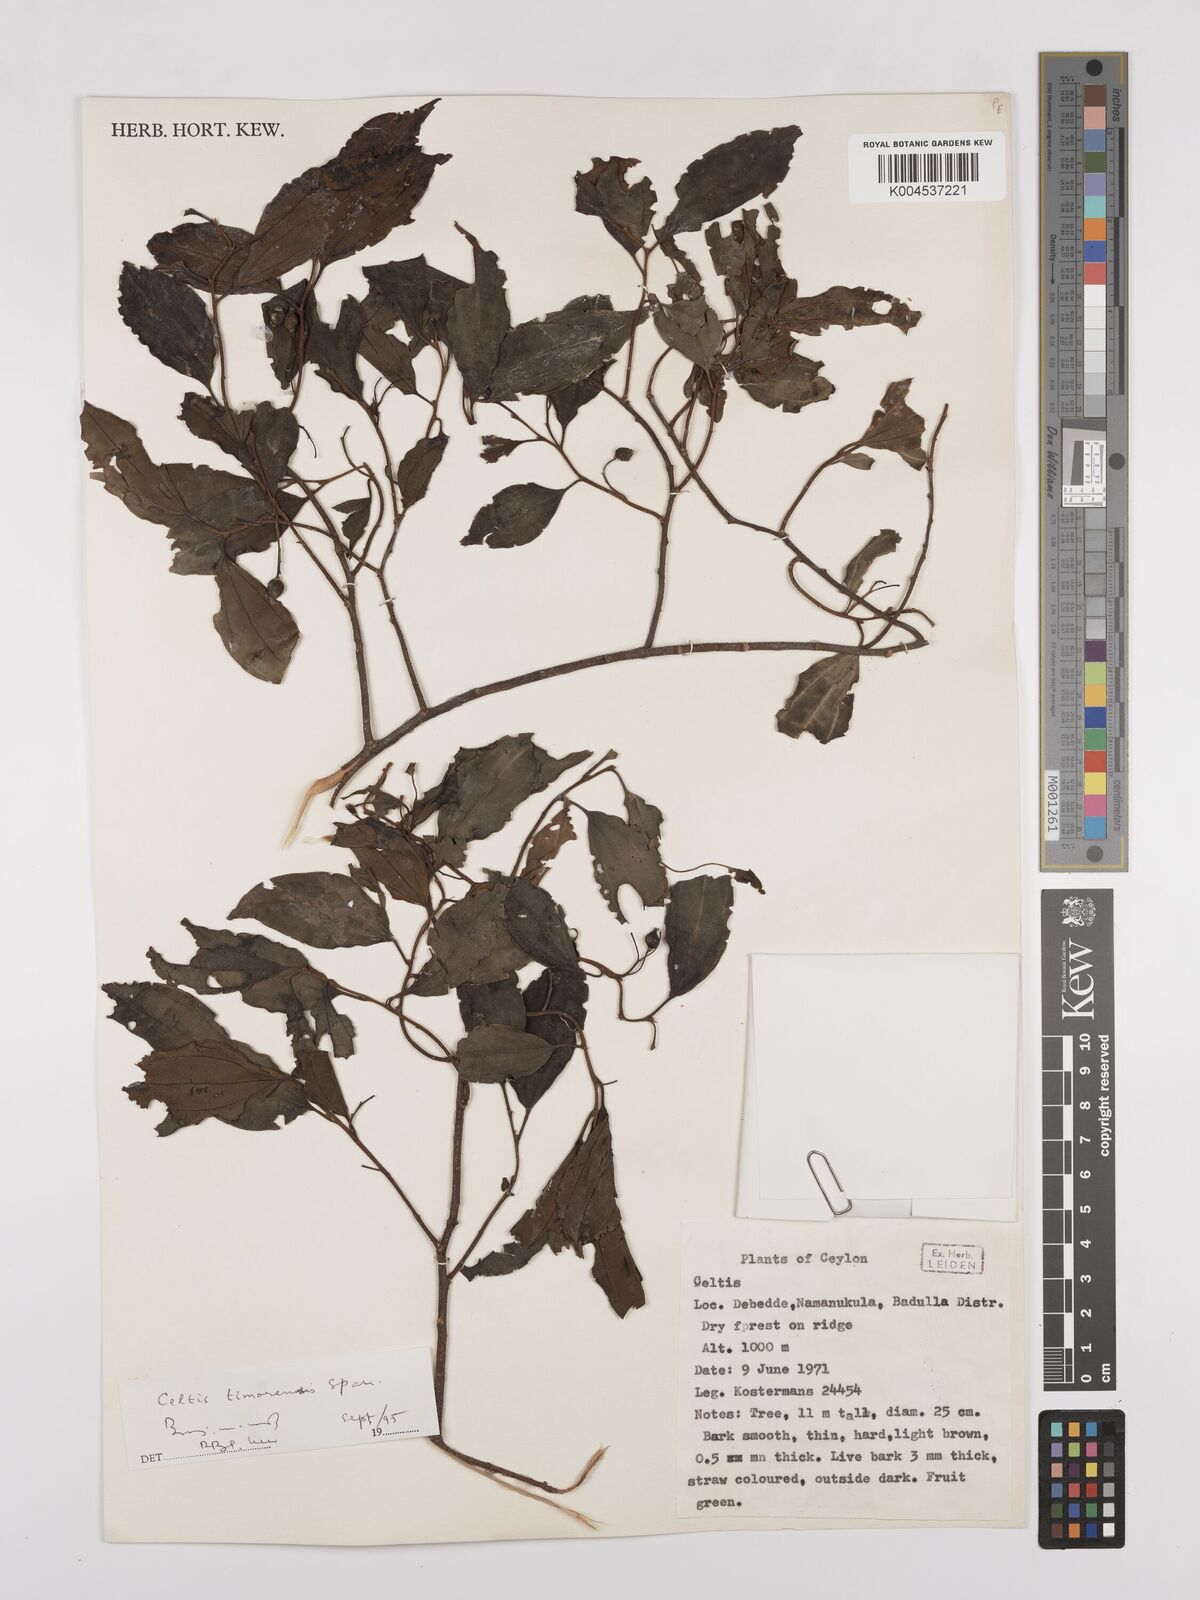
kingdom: Plantae
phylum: Tracheophyta
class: Magnoliopsida
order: Rosales
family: Cannabaceae
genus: Celtis
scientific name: Celtis timorensis
